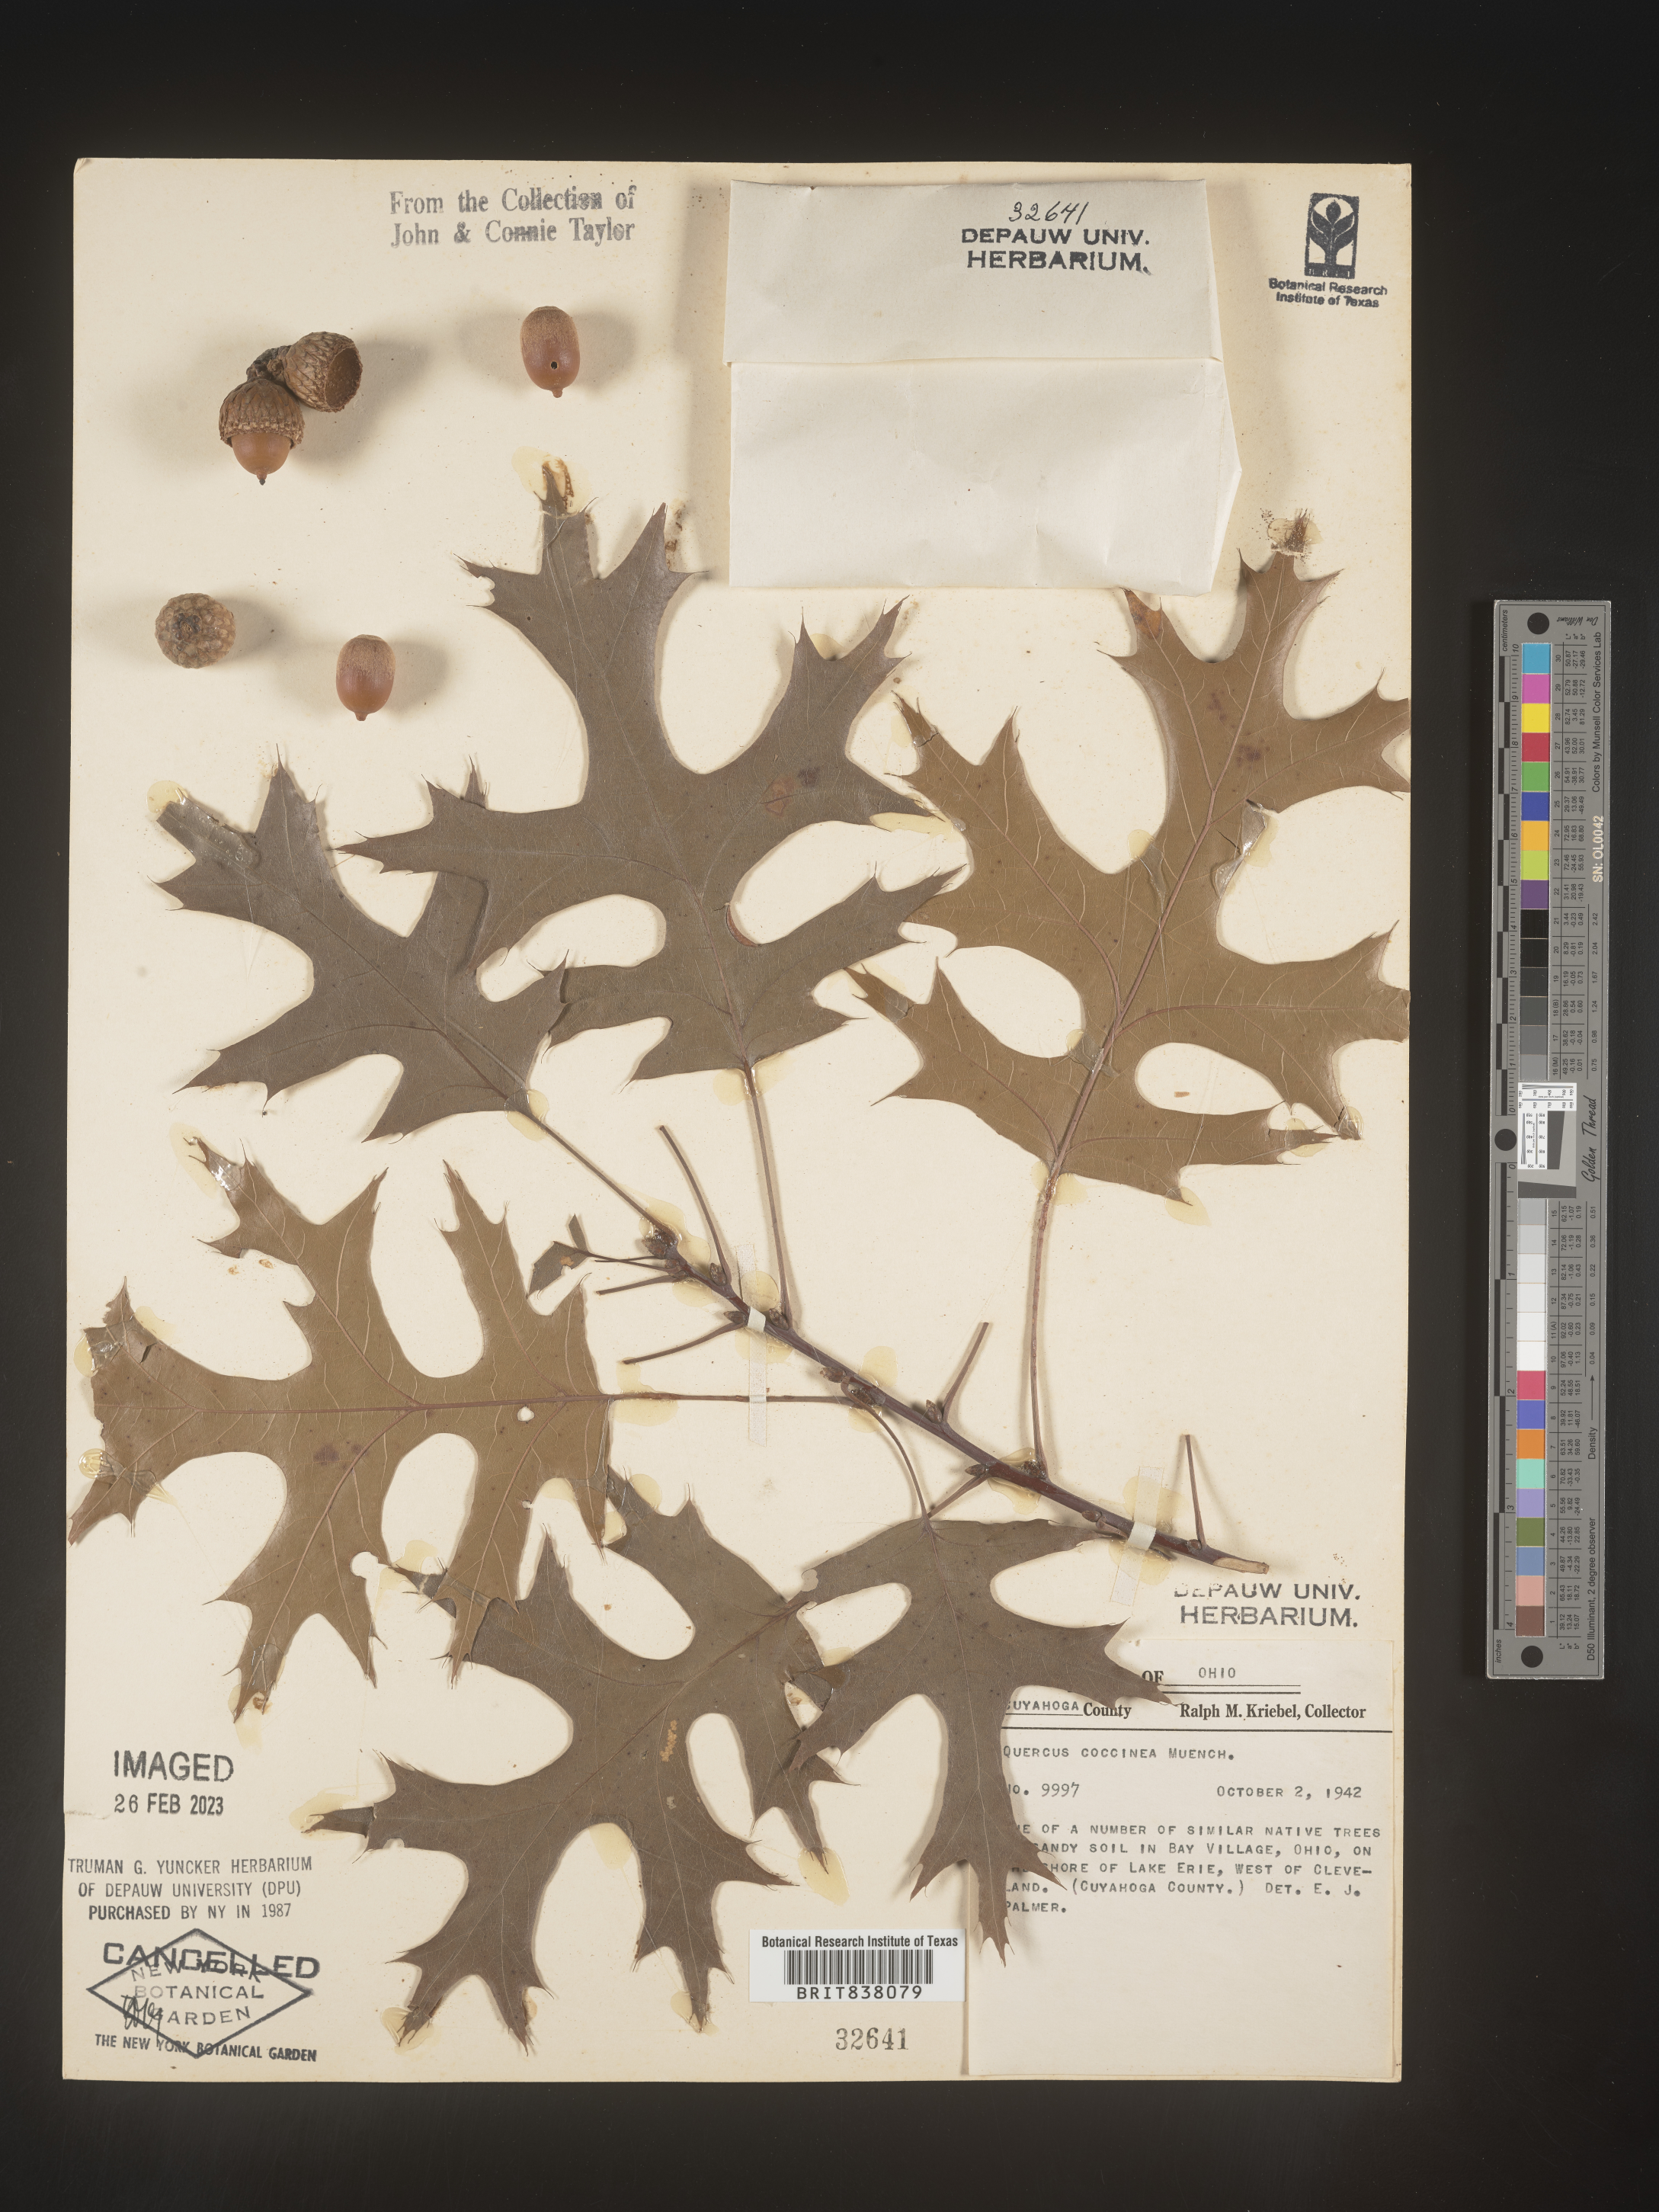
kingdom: Plantae
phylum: Tracheophyta
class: Magnoliopsida
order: Fagales
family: Fagaceae
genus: Quercus
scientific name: Quercus coccinea
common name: Scarlet oak
